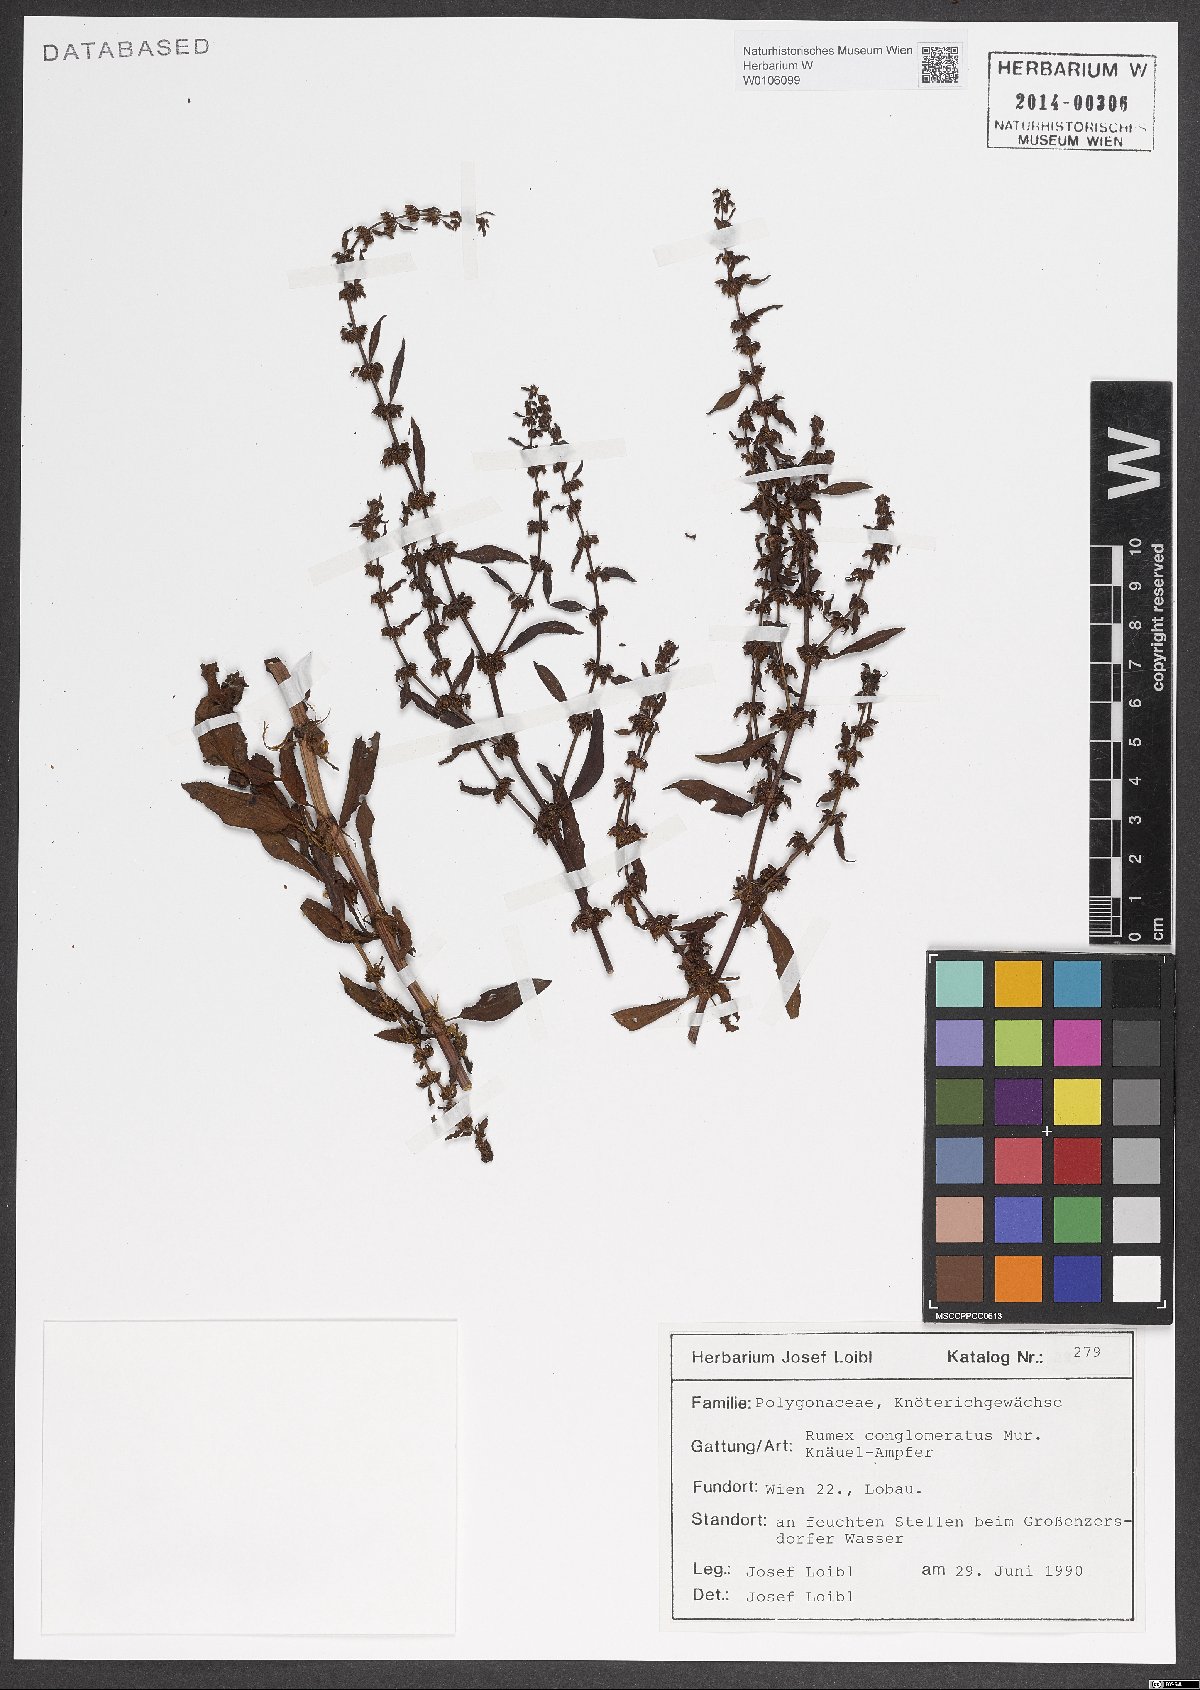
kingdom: Plantae
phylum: Tracheophyta
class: Magnoliopsida
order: Caryophyllales
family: Polygonaceae
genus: Rumex
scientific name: Rumex conglomeratus
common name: Clustered dock
